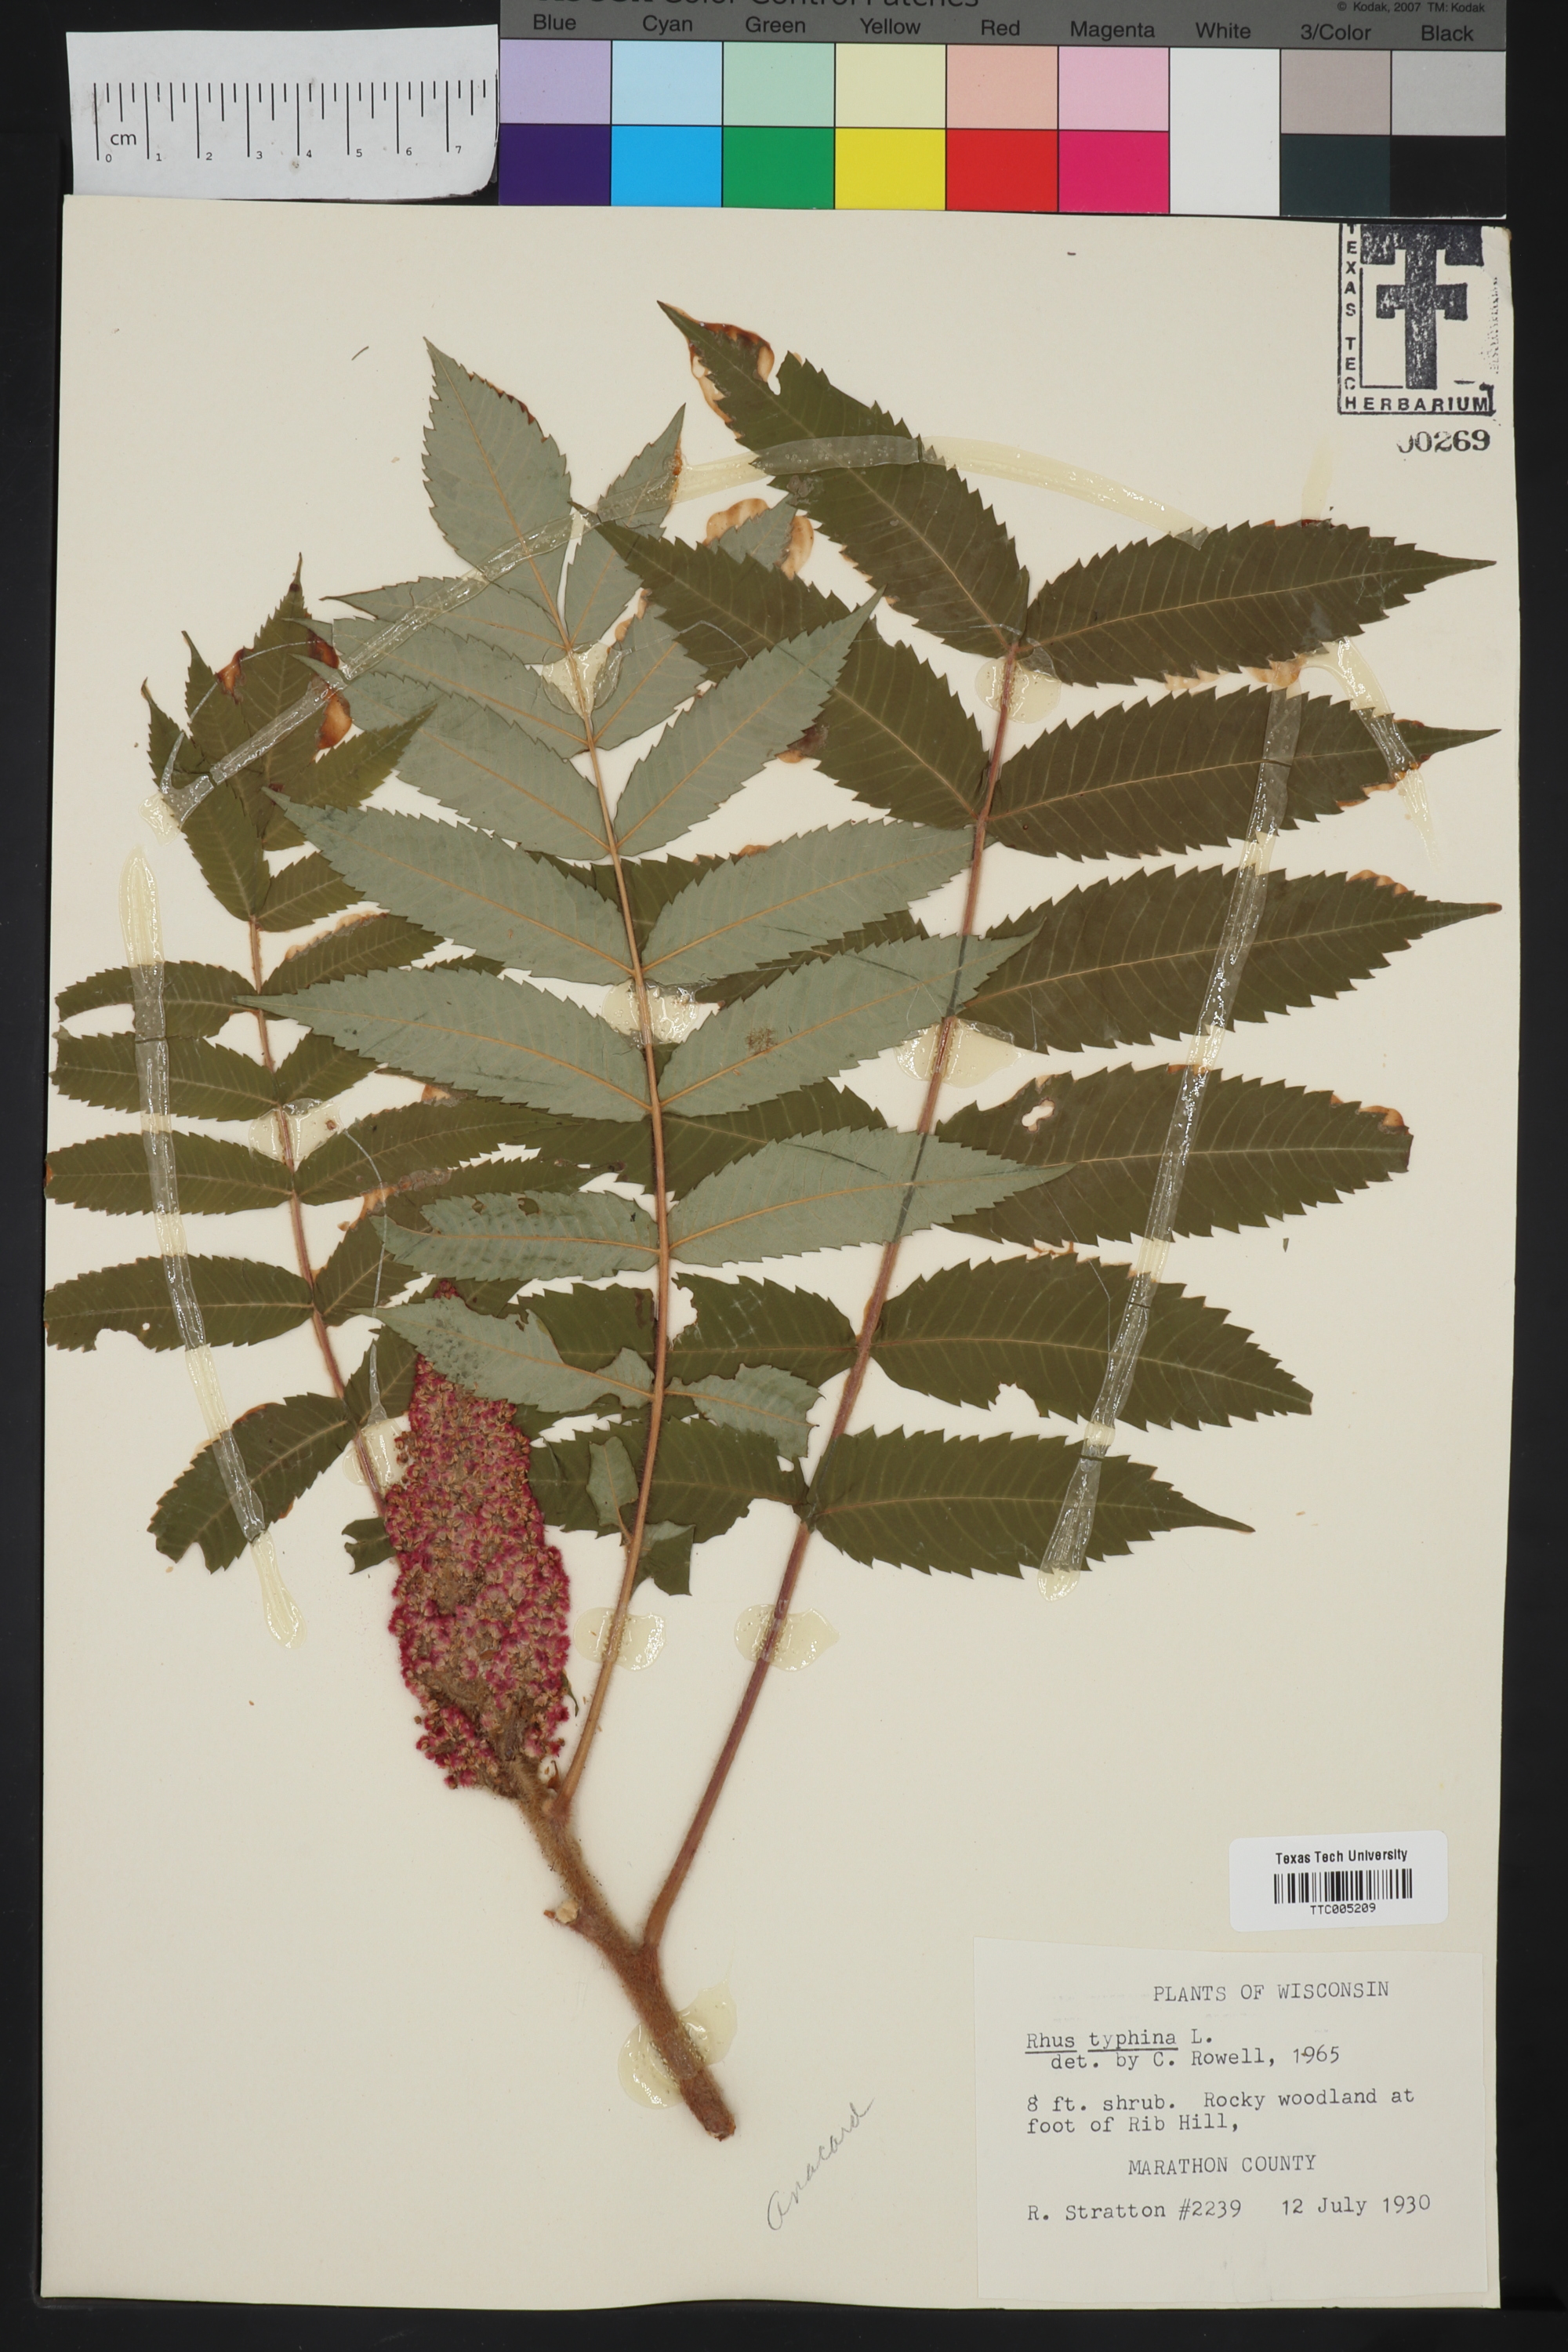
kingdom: Plantae
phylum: Tracheophyta
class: Magnoliopsida
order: Sapindales
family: Anacardiaceae
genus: Rhus
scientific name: Rhus typhina
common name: Staghorn sumac
